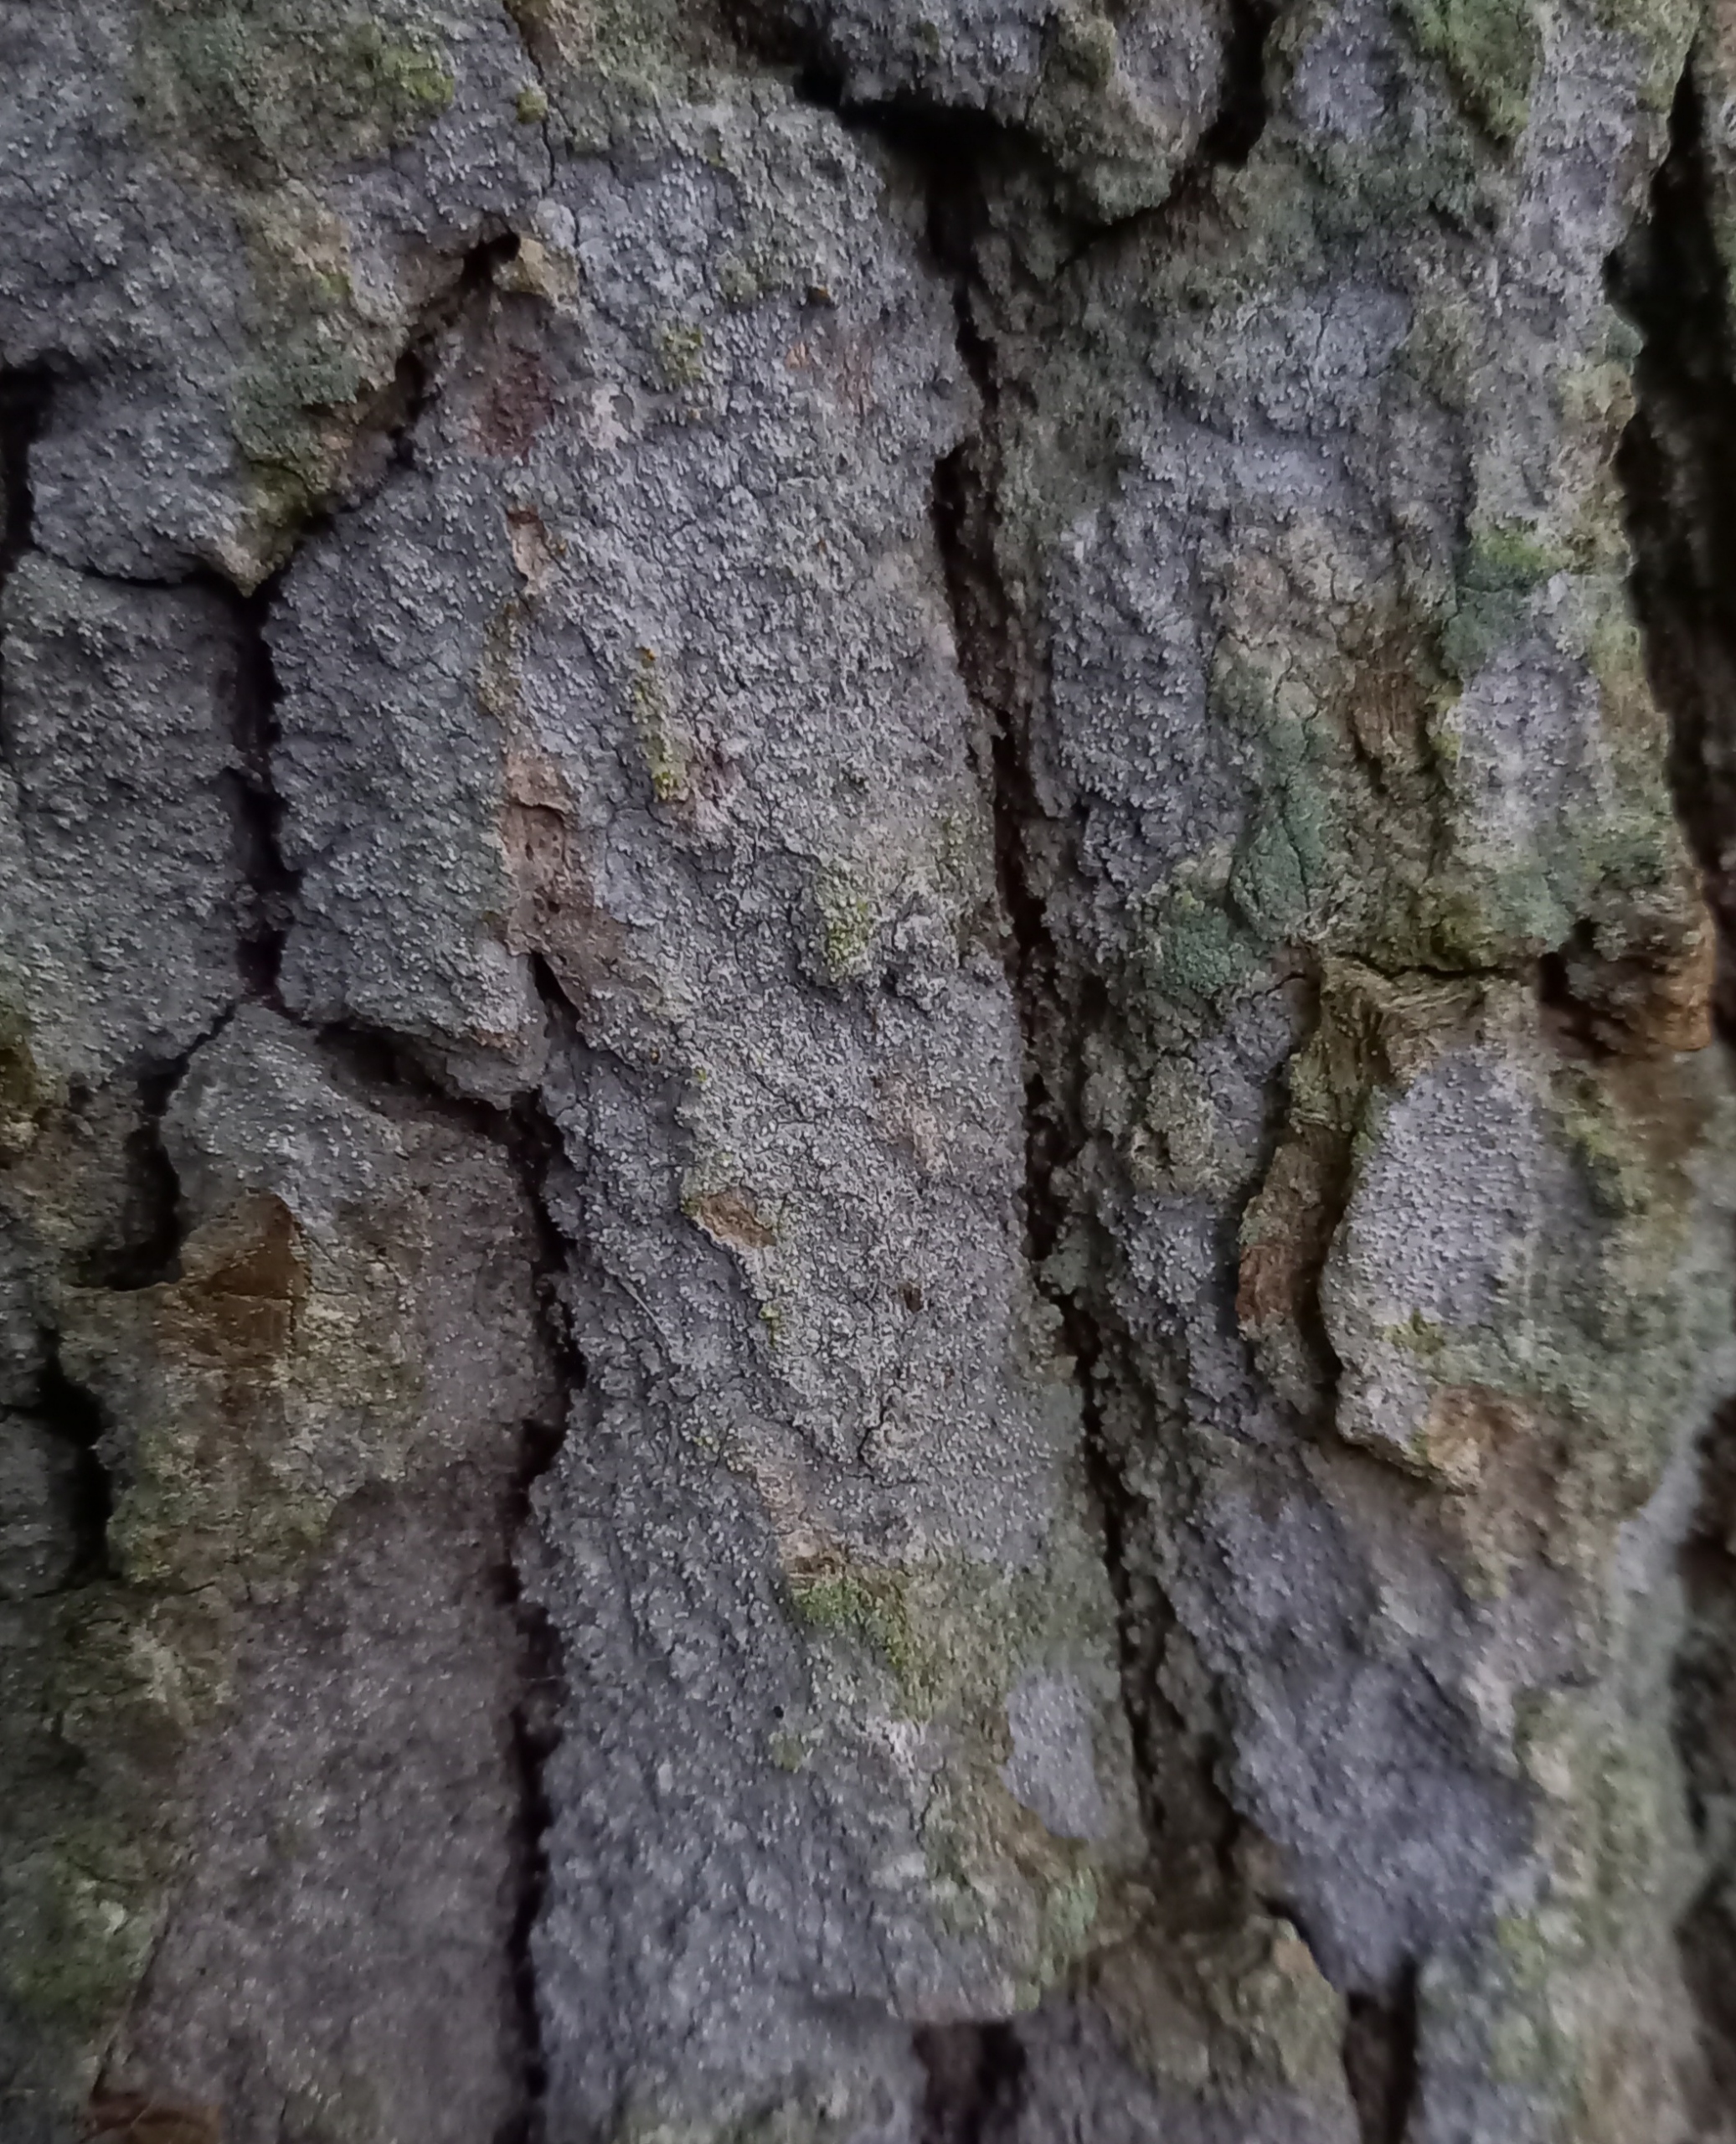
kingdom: Fungi
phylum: Ascomycota
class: Arthoniomycetes
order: Arthoniales
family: Roccellaceae
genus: Lecanactis
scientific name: Lecanactis abietina
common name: Grå dugskivelav
